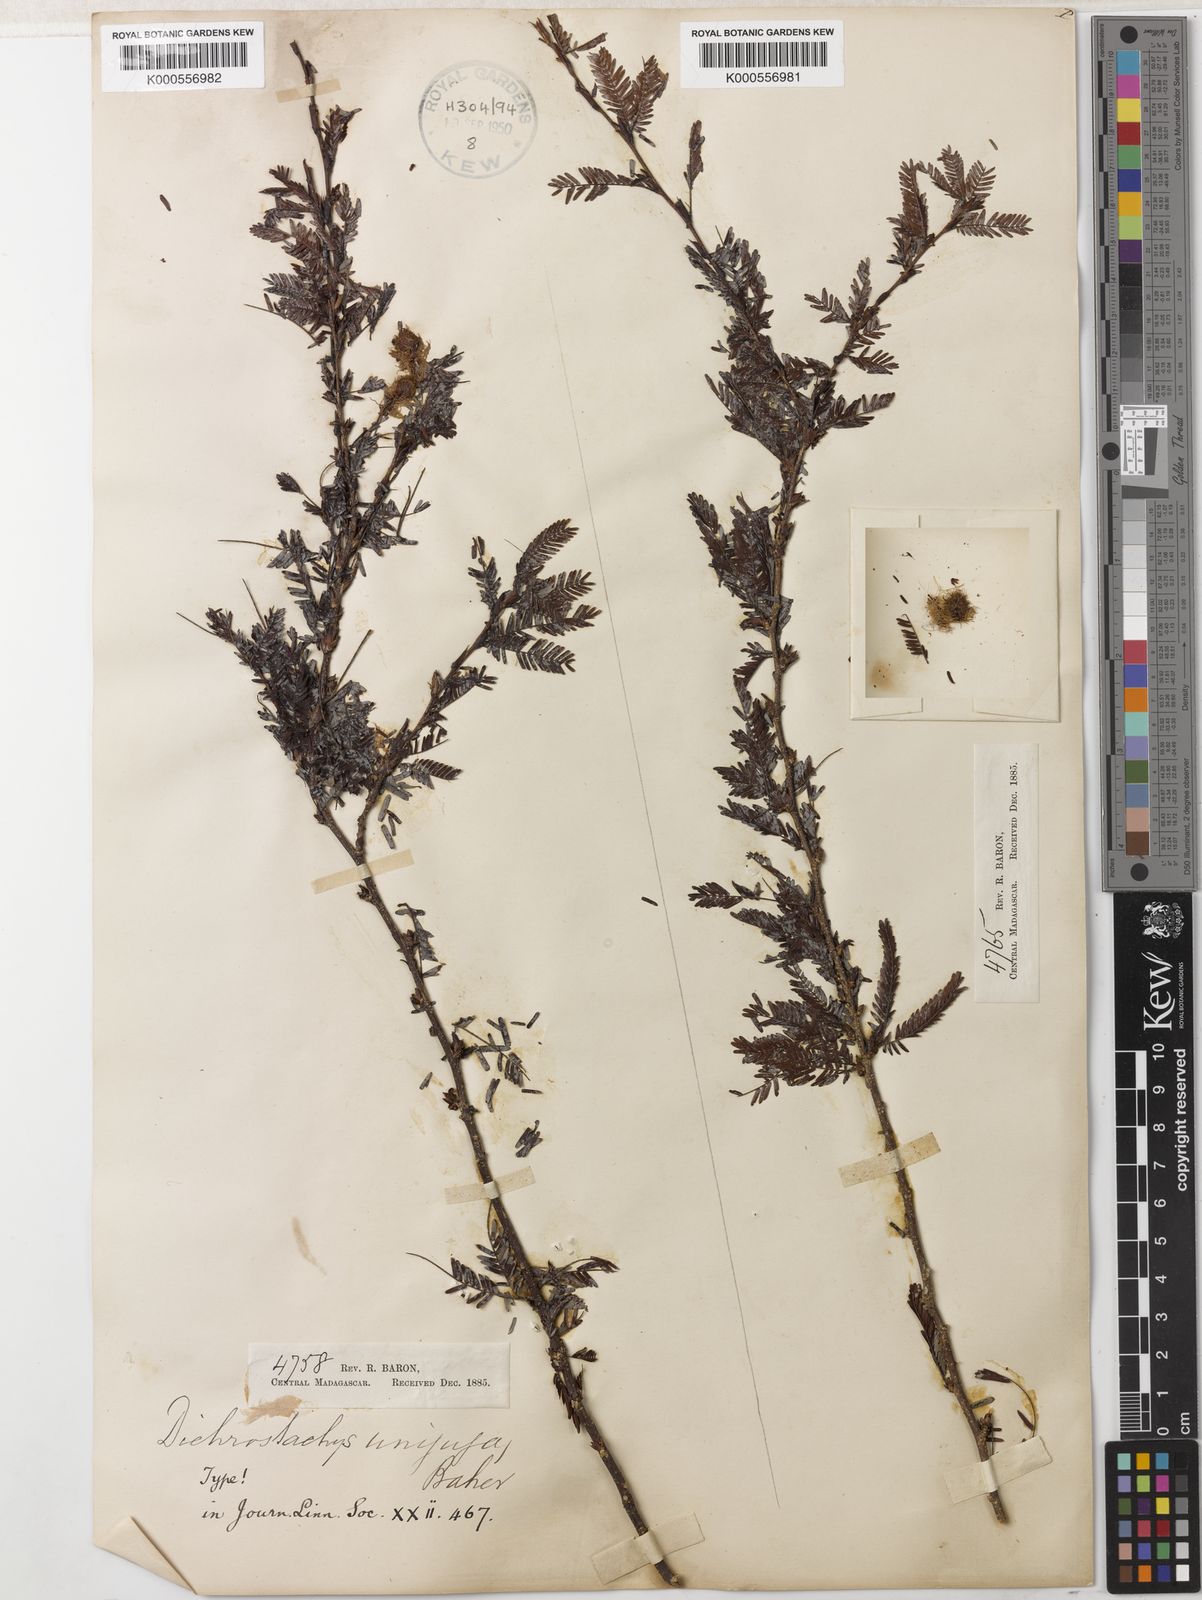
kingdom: Plantae
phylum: Tracheophyta
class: Magnoliopsida
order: Fabales
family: Fabaceae
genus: Dichrostachys
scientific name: Dichrostachys unijuga
